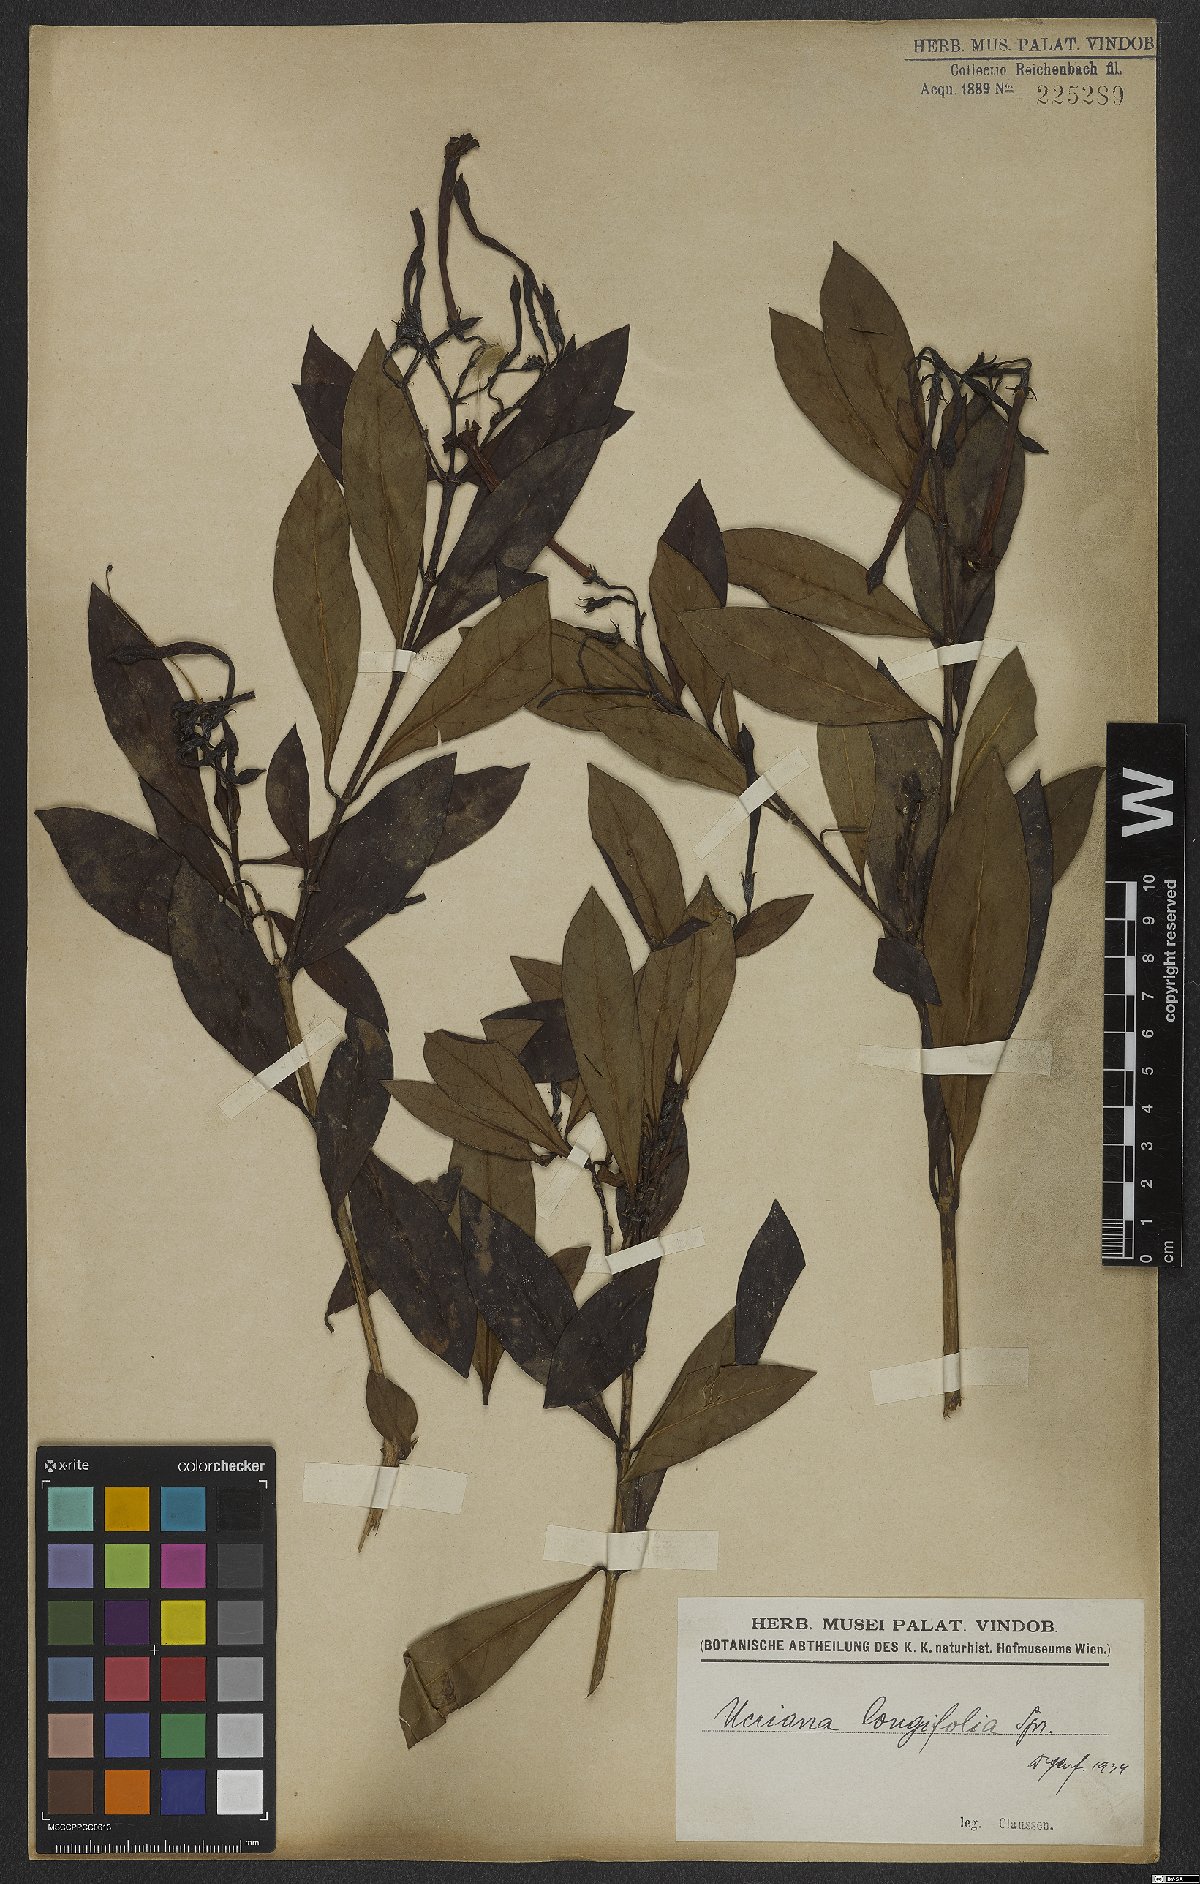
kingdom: Plantae
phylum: Tracheophyta
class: Magnoliopsida
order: Gentianales
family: Rubiaceae
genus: Augusta
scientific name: Augusta longifolia
